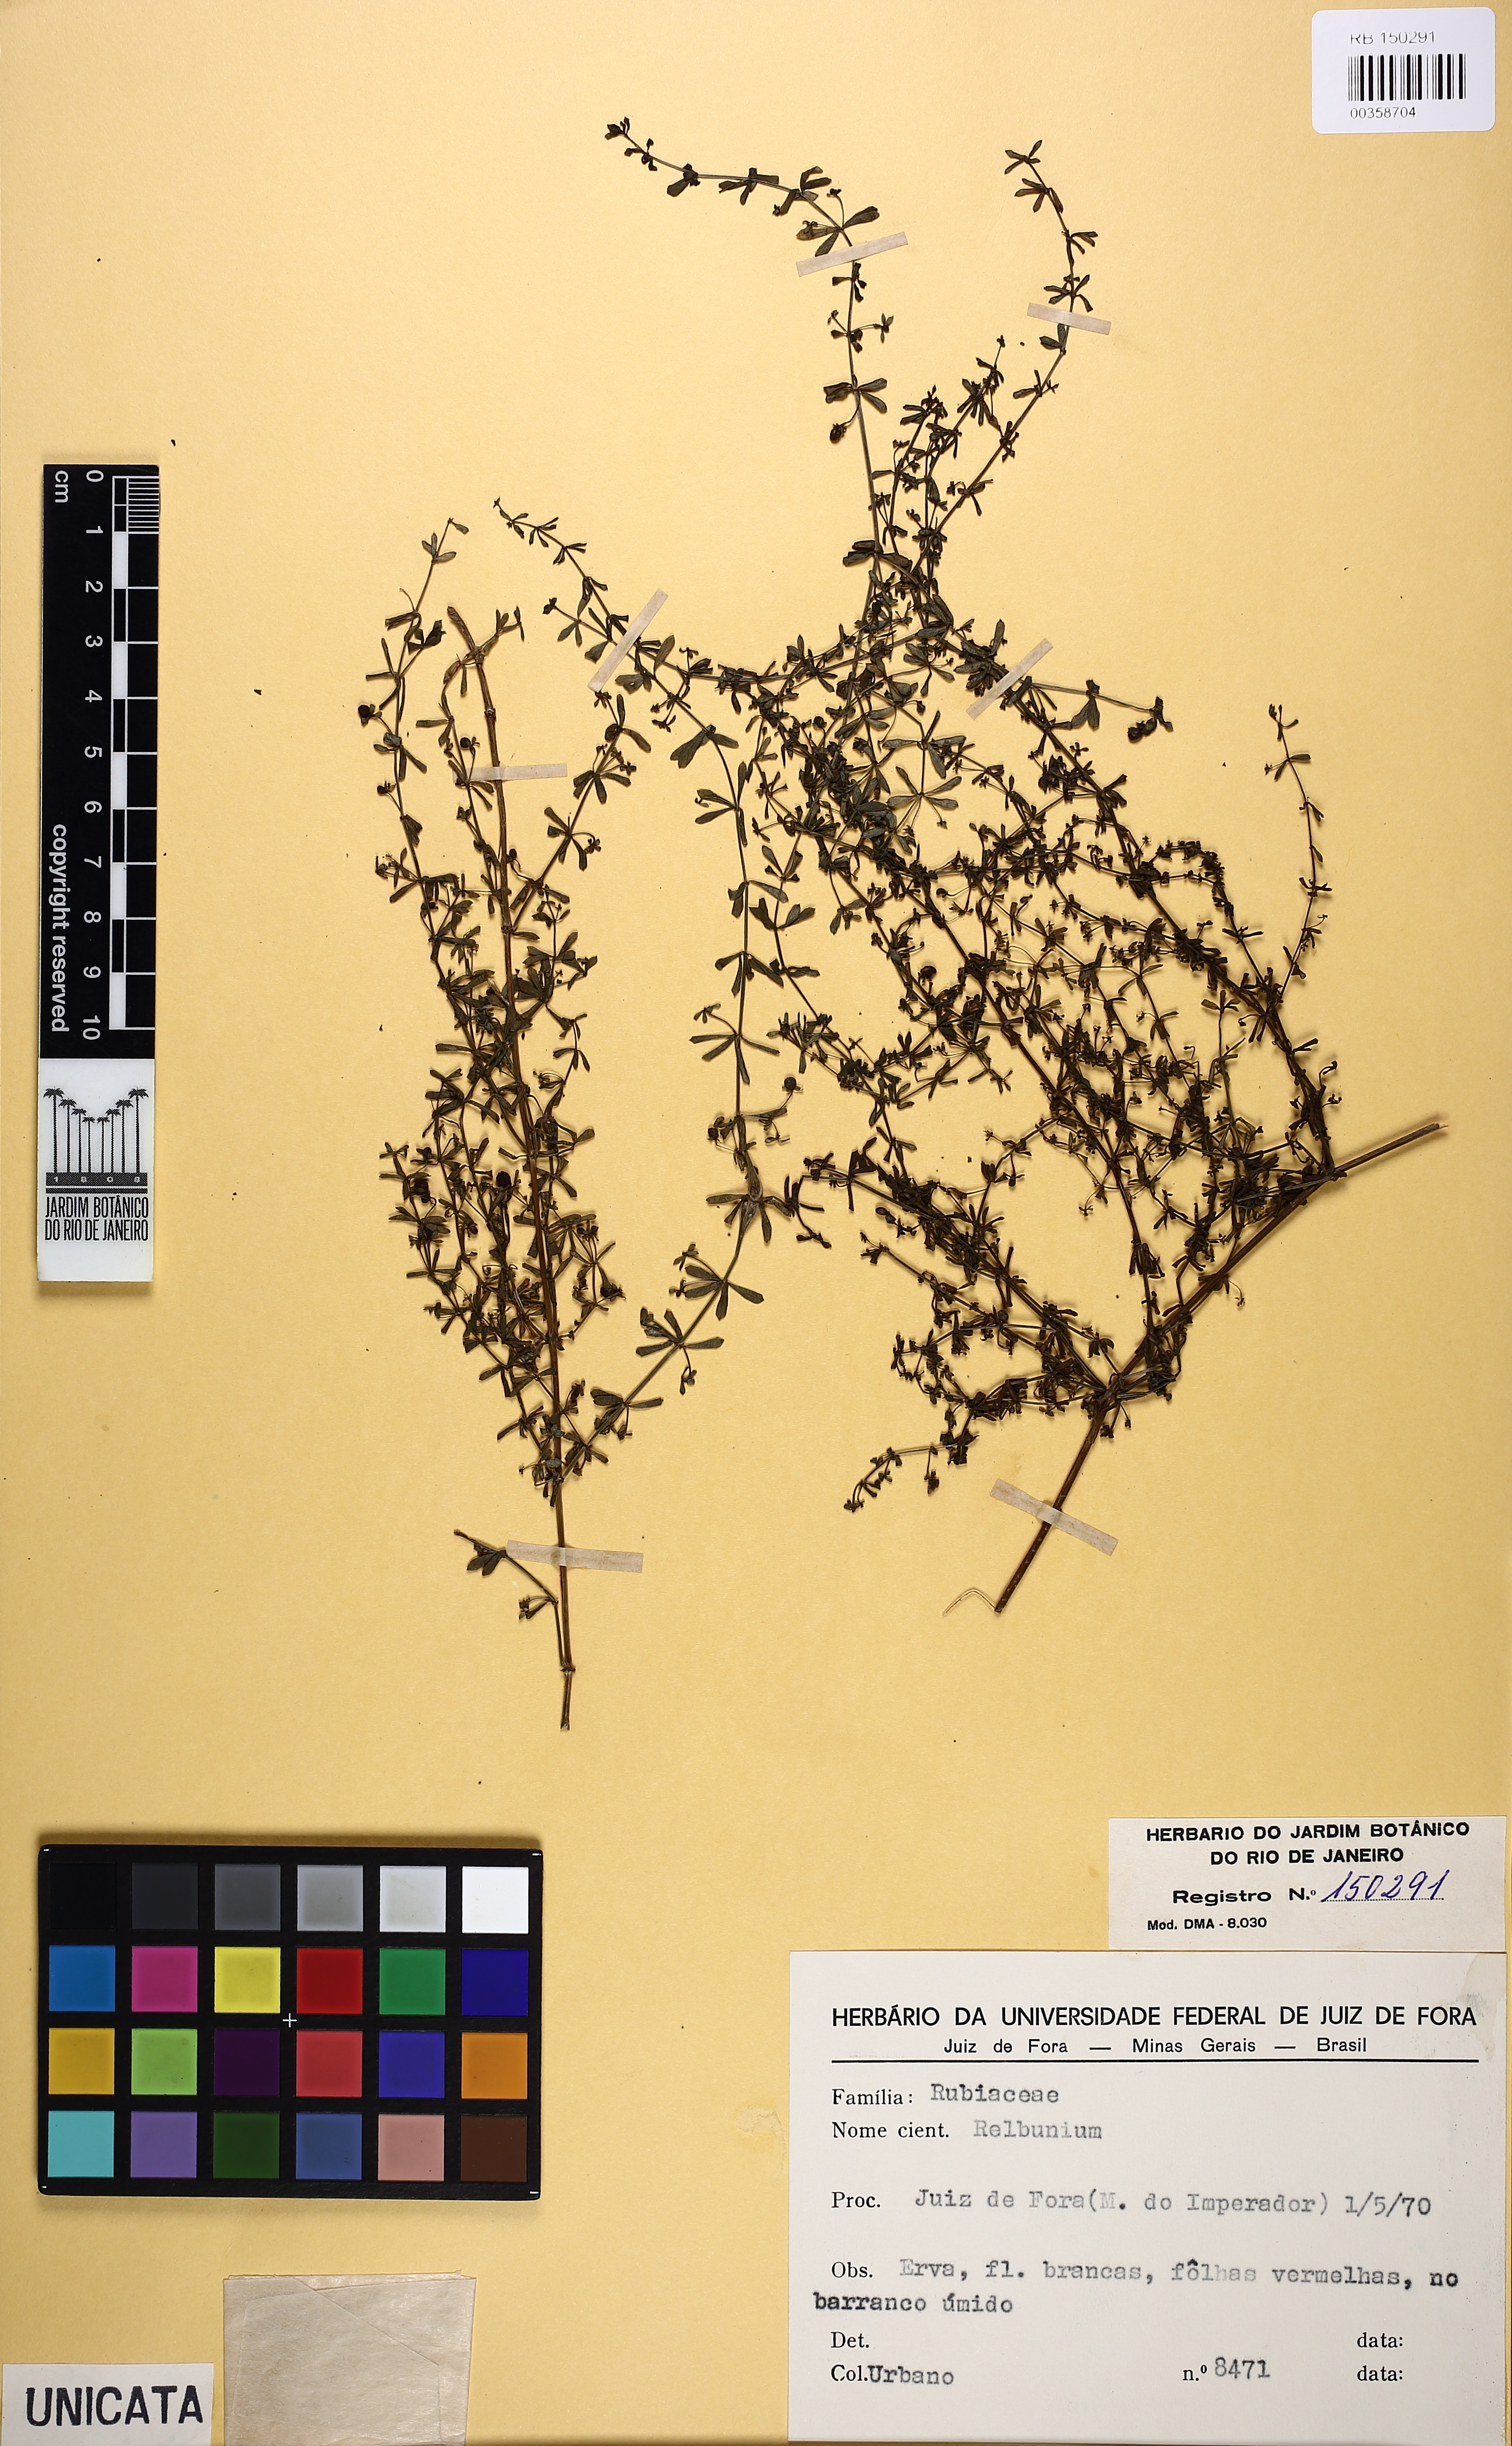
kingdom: Plantae
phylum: Tracheophyta
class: Magnoliopsida
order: Gentianales
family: Rubiaceae
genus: Galium
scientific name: Galium hypocarpium
